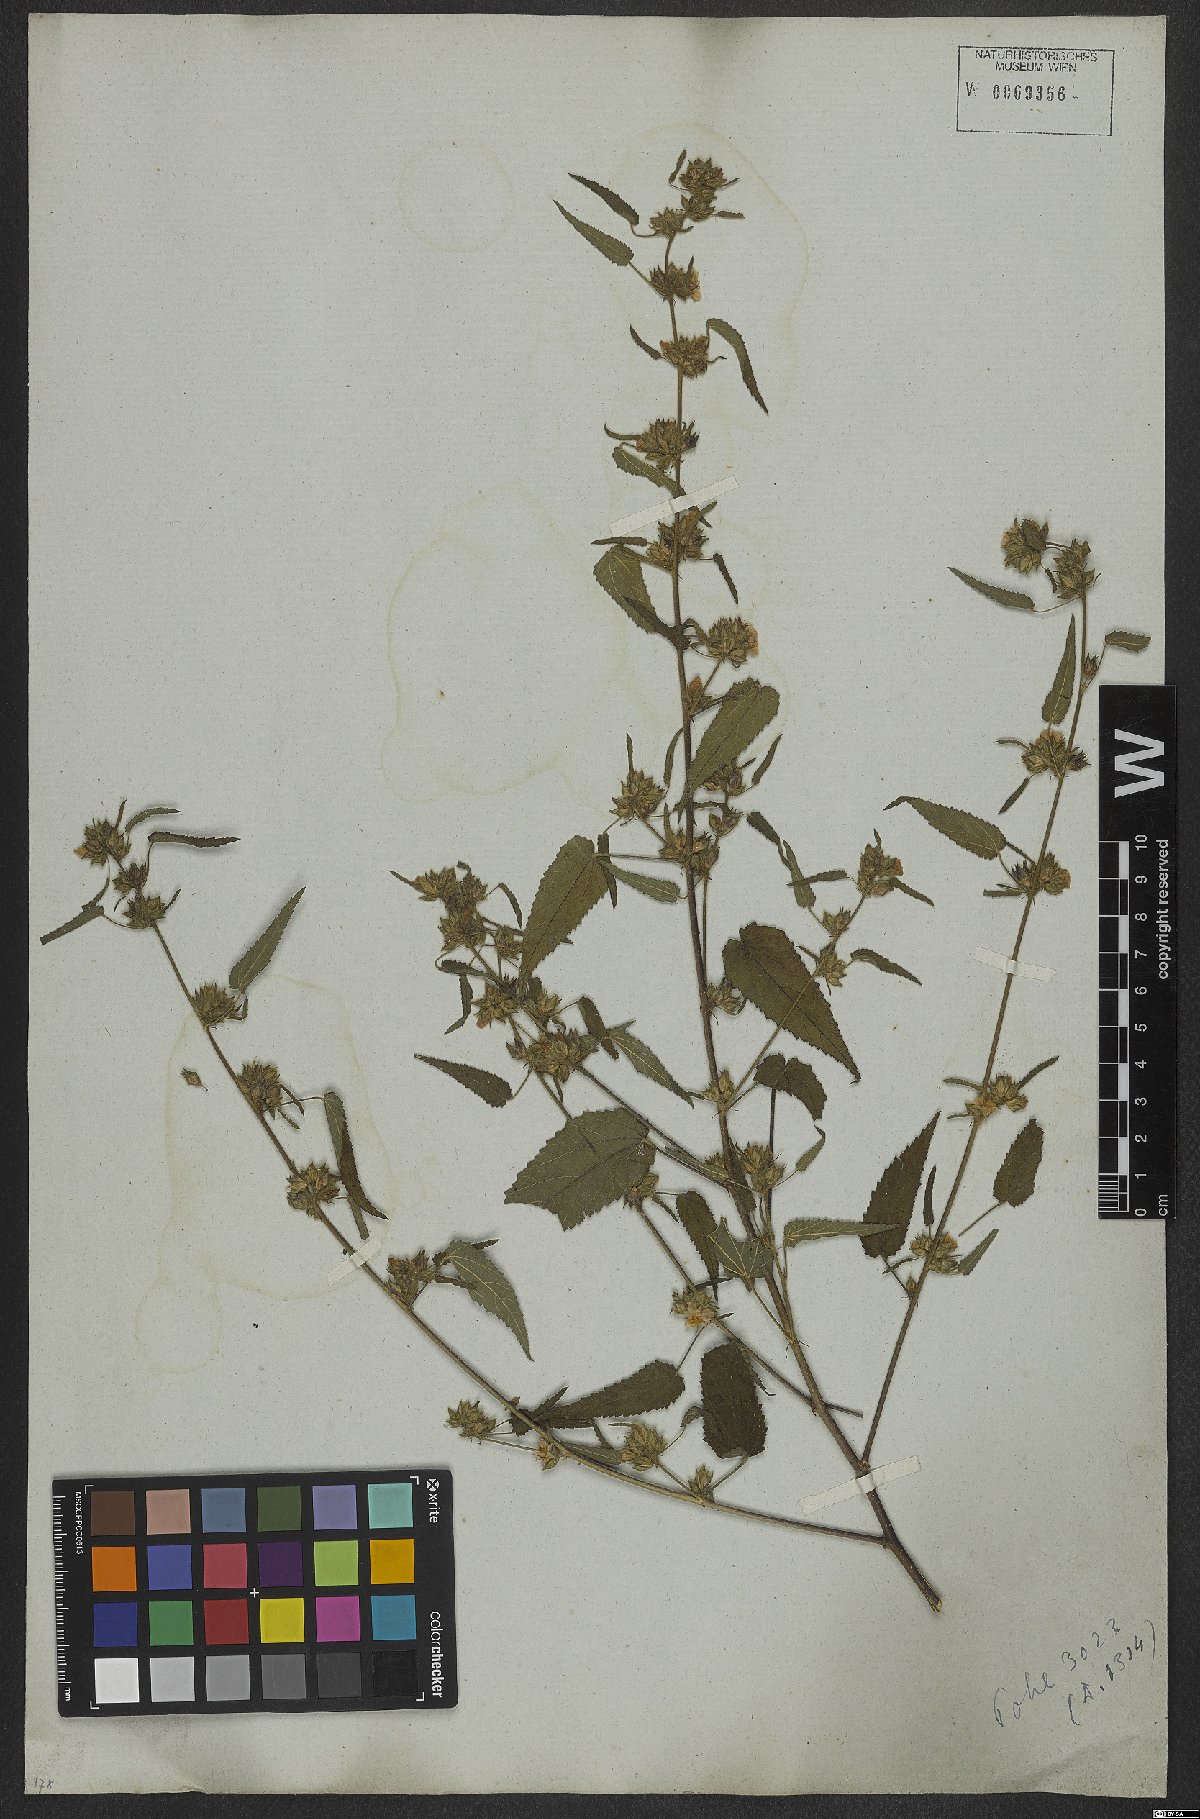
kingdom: Plantae
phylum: Tracheophyta
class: Magnoliopsida
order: Malvales
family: Malvaceae
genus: Sida
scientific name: Sida caudata
